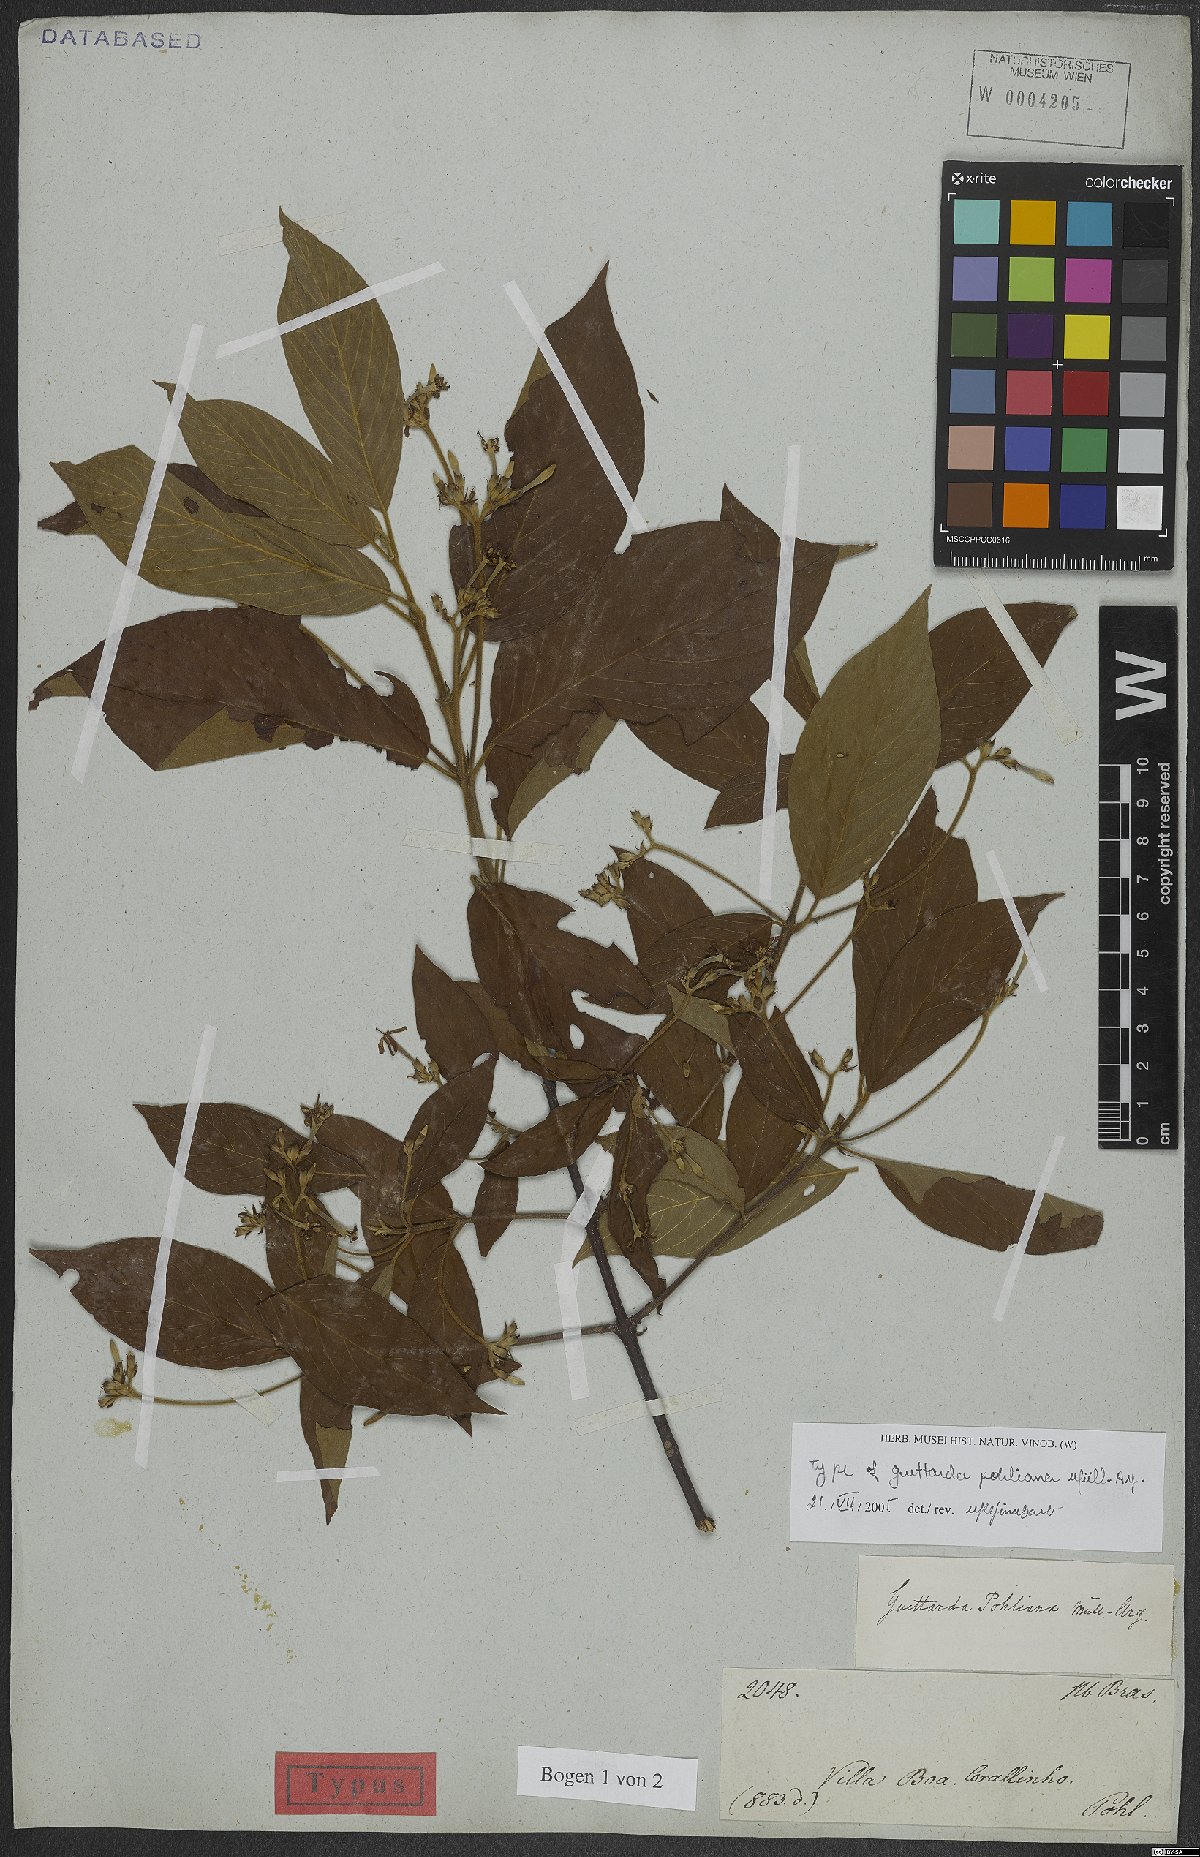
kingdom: Plantae
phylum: Tracheophyta
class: Magnoliopsida
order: Gentianales
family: Rubiaceae
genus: Guettarda
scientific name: Guettarda pohliana
